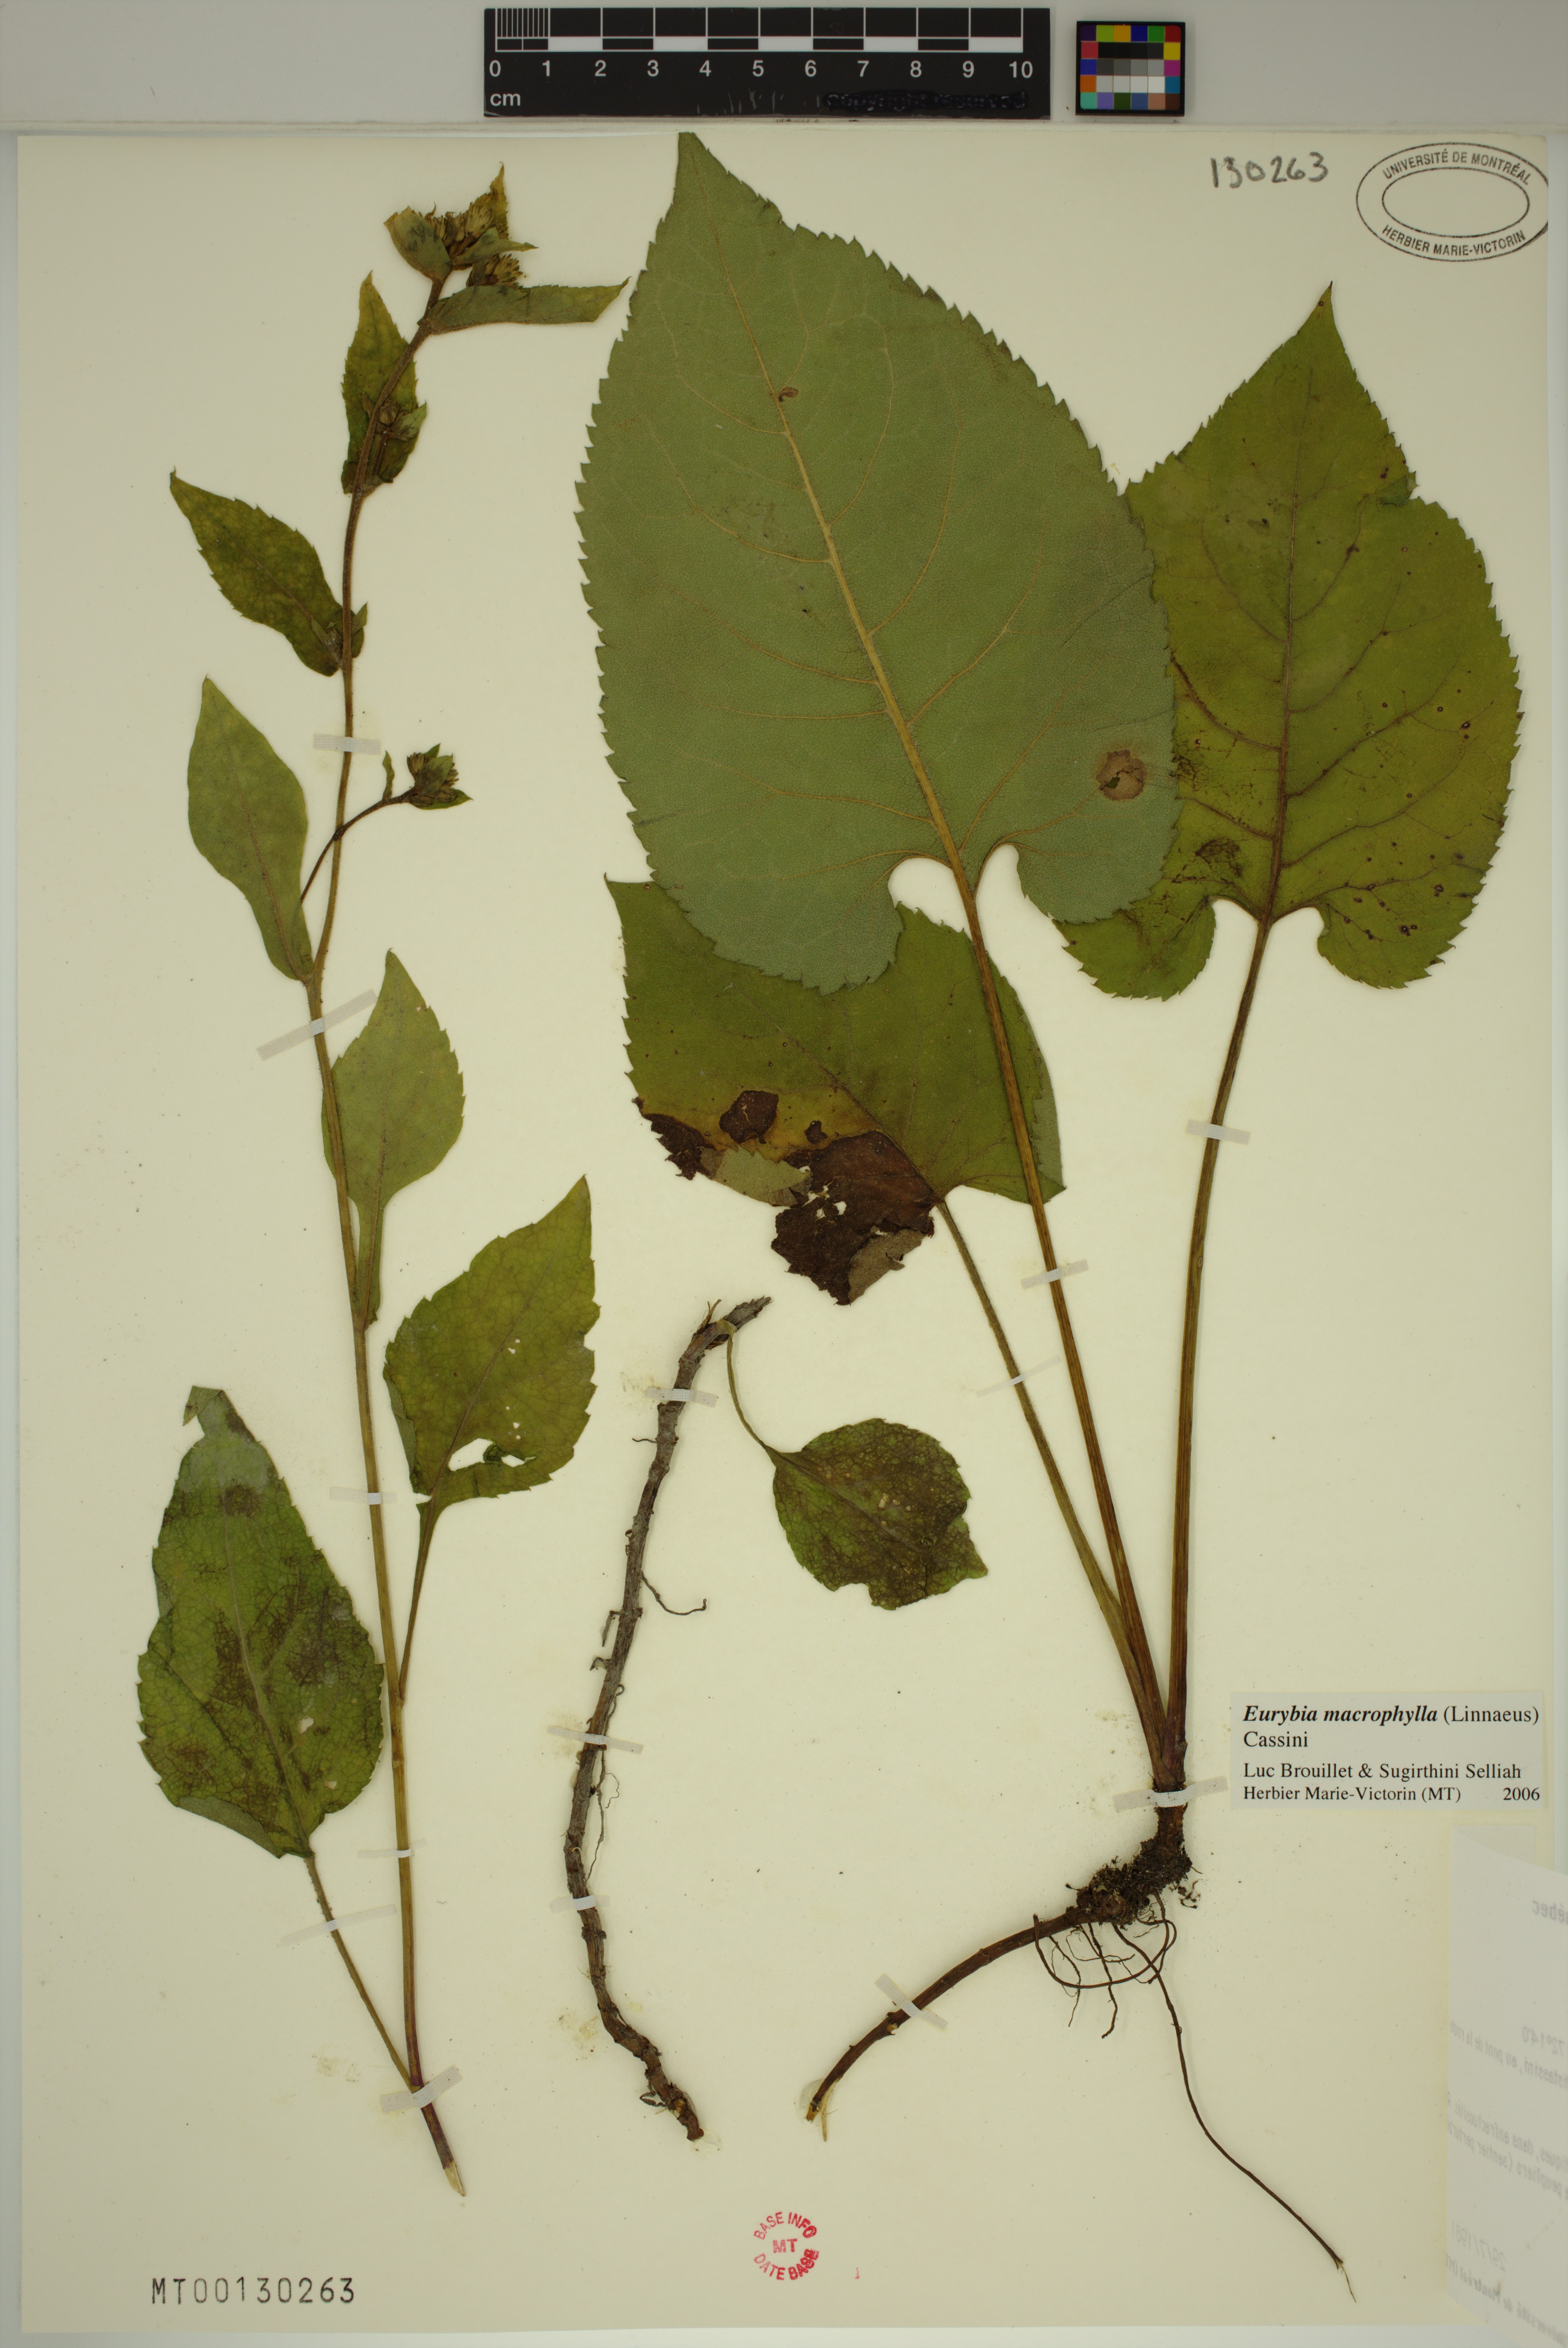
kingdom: Plantae
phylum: Tracheophyta
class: Magnoliopsida
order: Asterales
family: Asteraceae
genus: Eurybia
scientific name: Eurybia macrophylla
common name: Big-leaved aster
